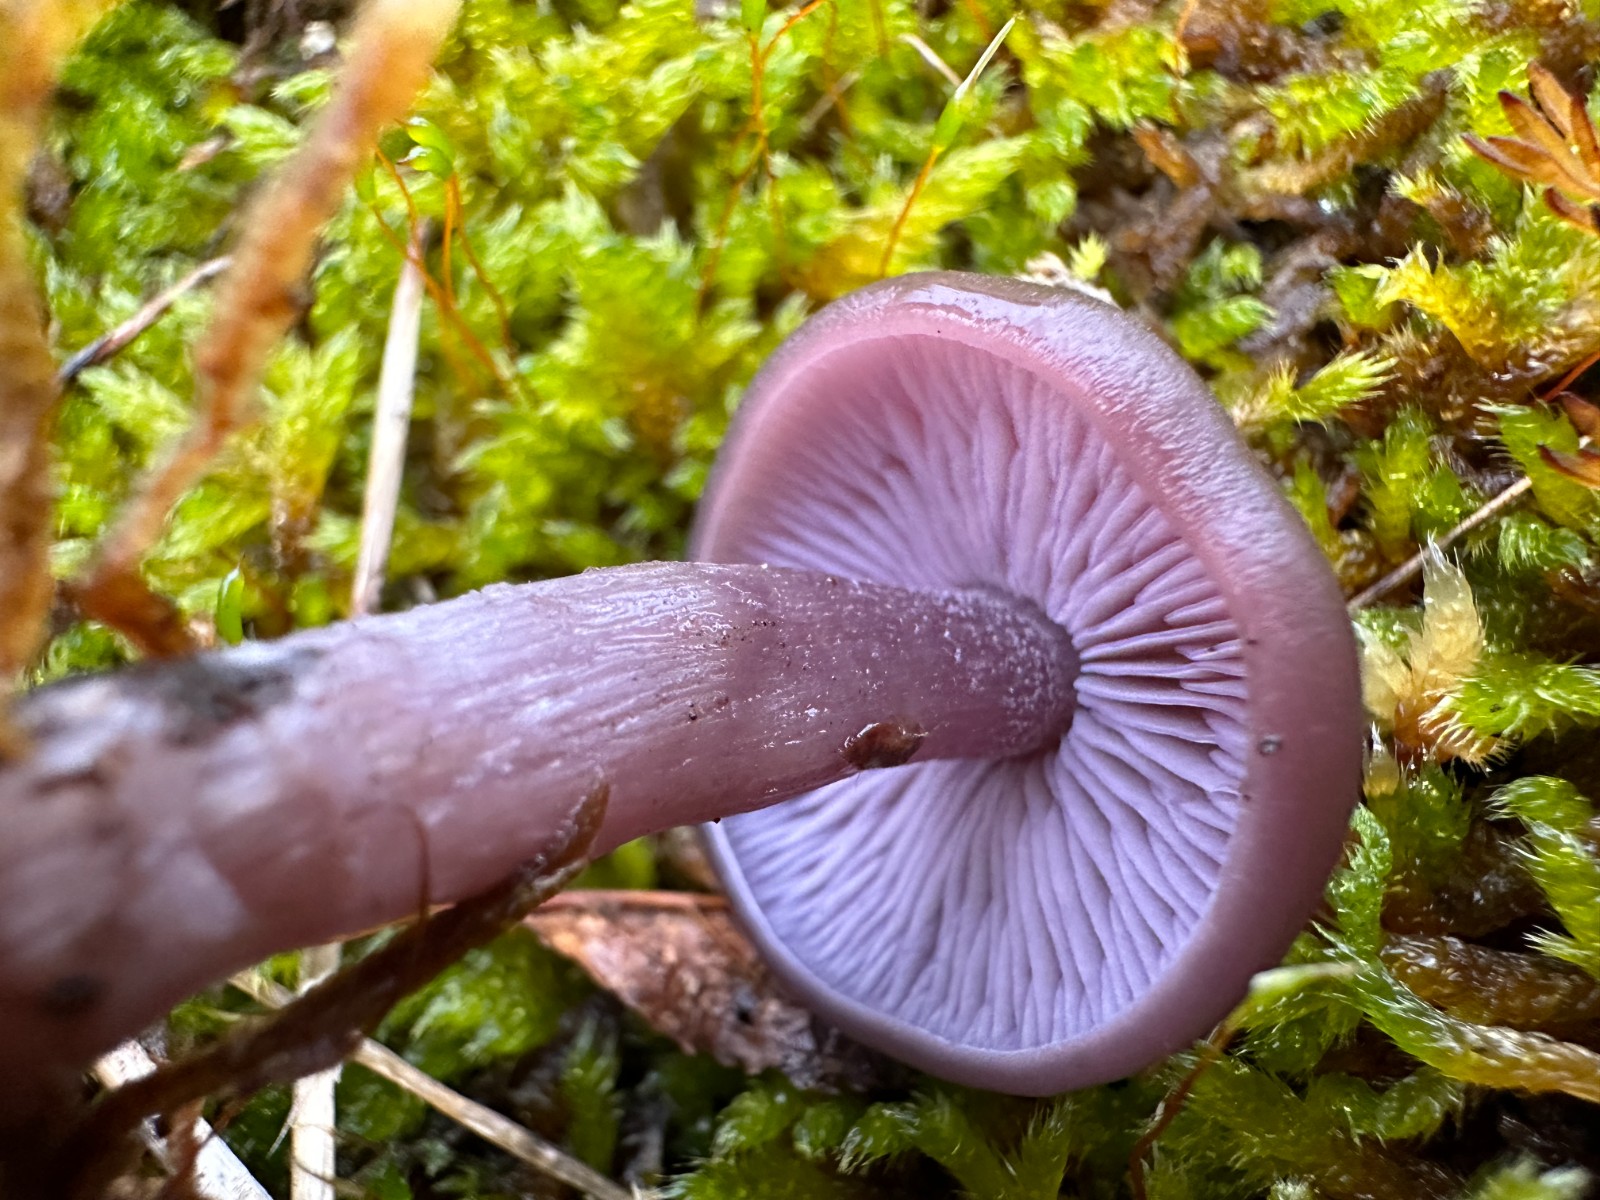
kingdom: Fungi
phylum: Basidiomycota
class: Agaricomycetes
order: Agaricales
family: Tricholomataceae
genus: Lepista
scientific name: Lepista lilacea
